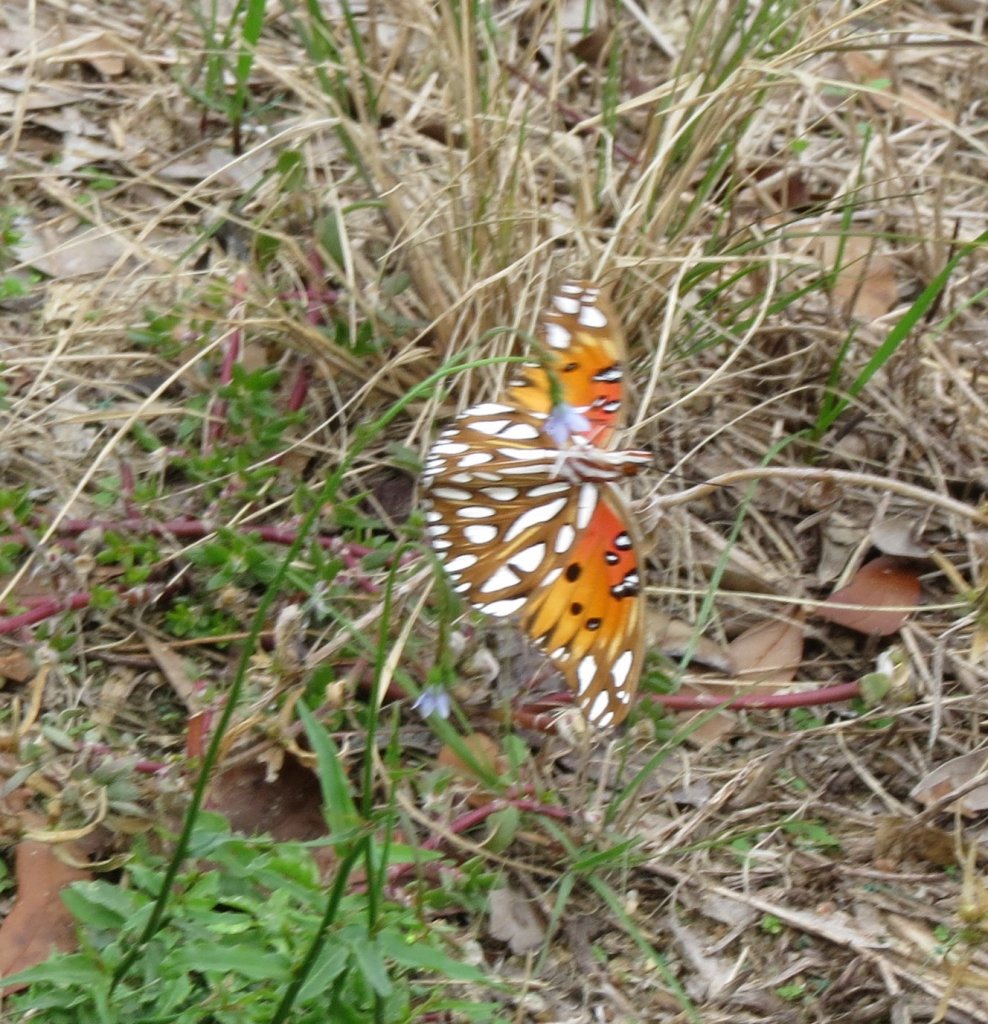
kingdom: Animalia
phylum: Arthropoda
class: Insecta
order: Lepidoptera
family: Nymphalidae
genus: Dione
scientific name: Dione vanillae
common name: Gulf Fritillary
